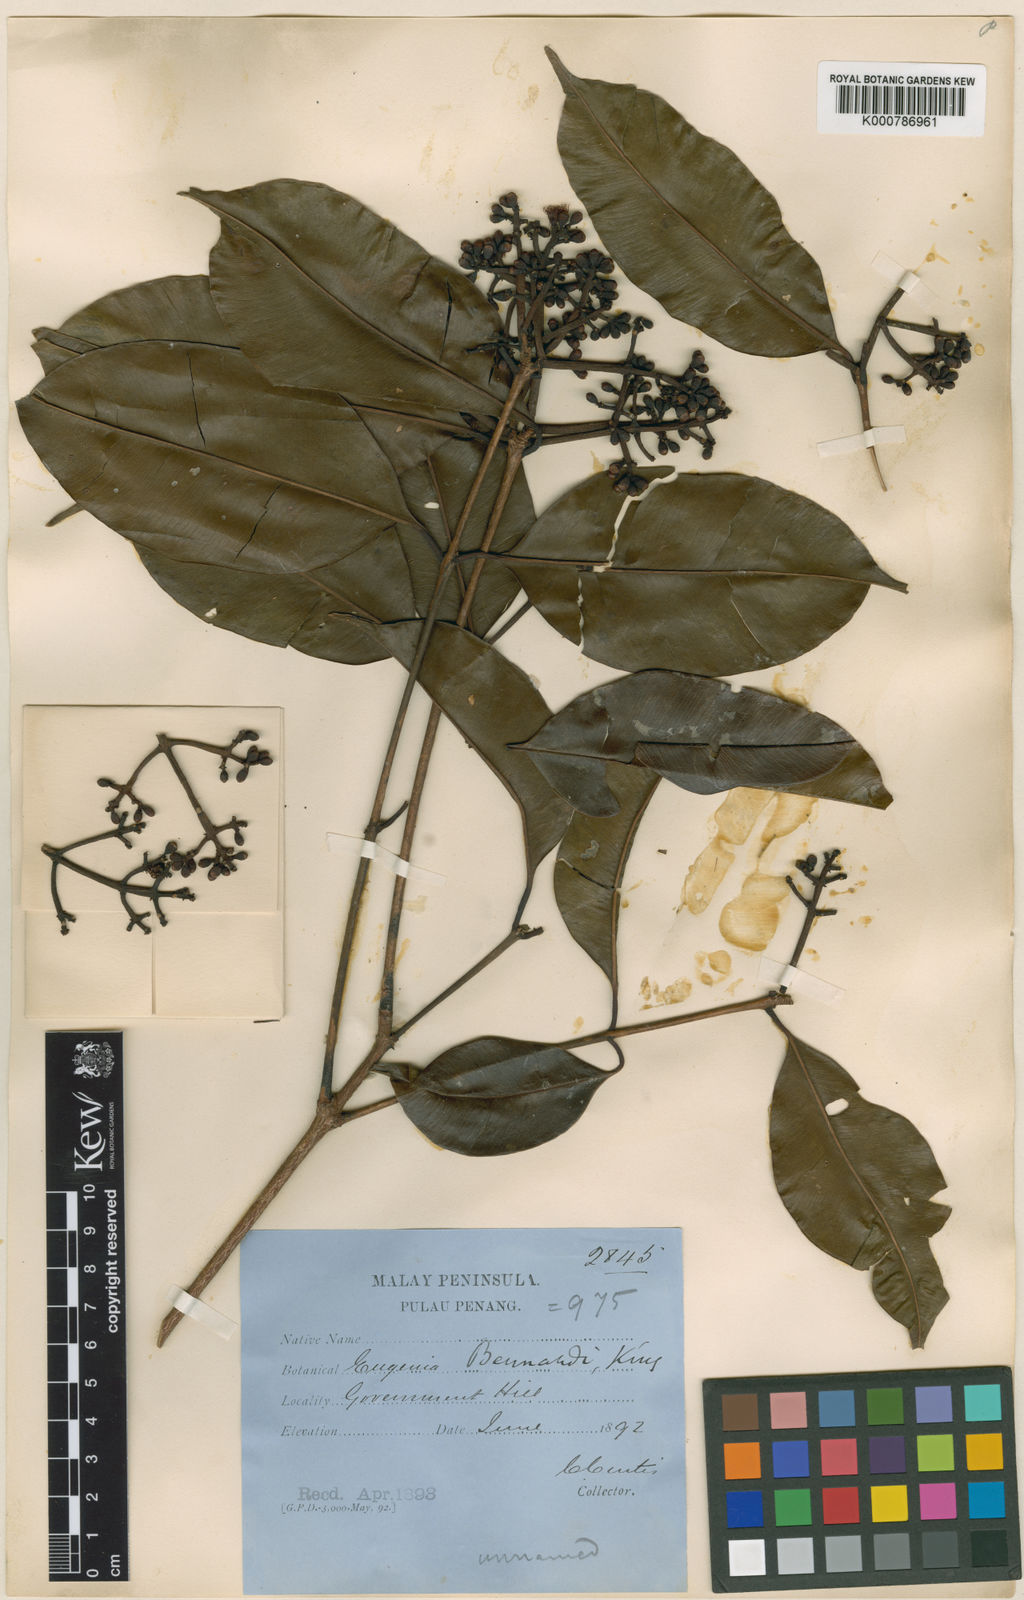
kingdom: Plantae
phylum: Tracheophyta
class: Magnoliopsida
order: Myrtales
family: Myrtaceae
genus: Syzygium
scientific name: Syzygium bernardoi
